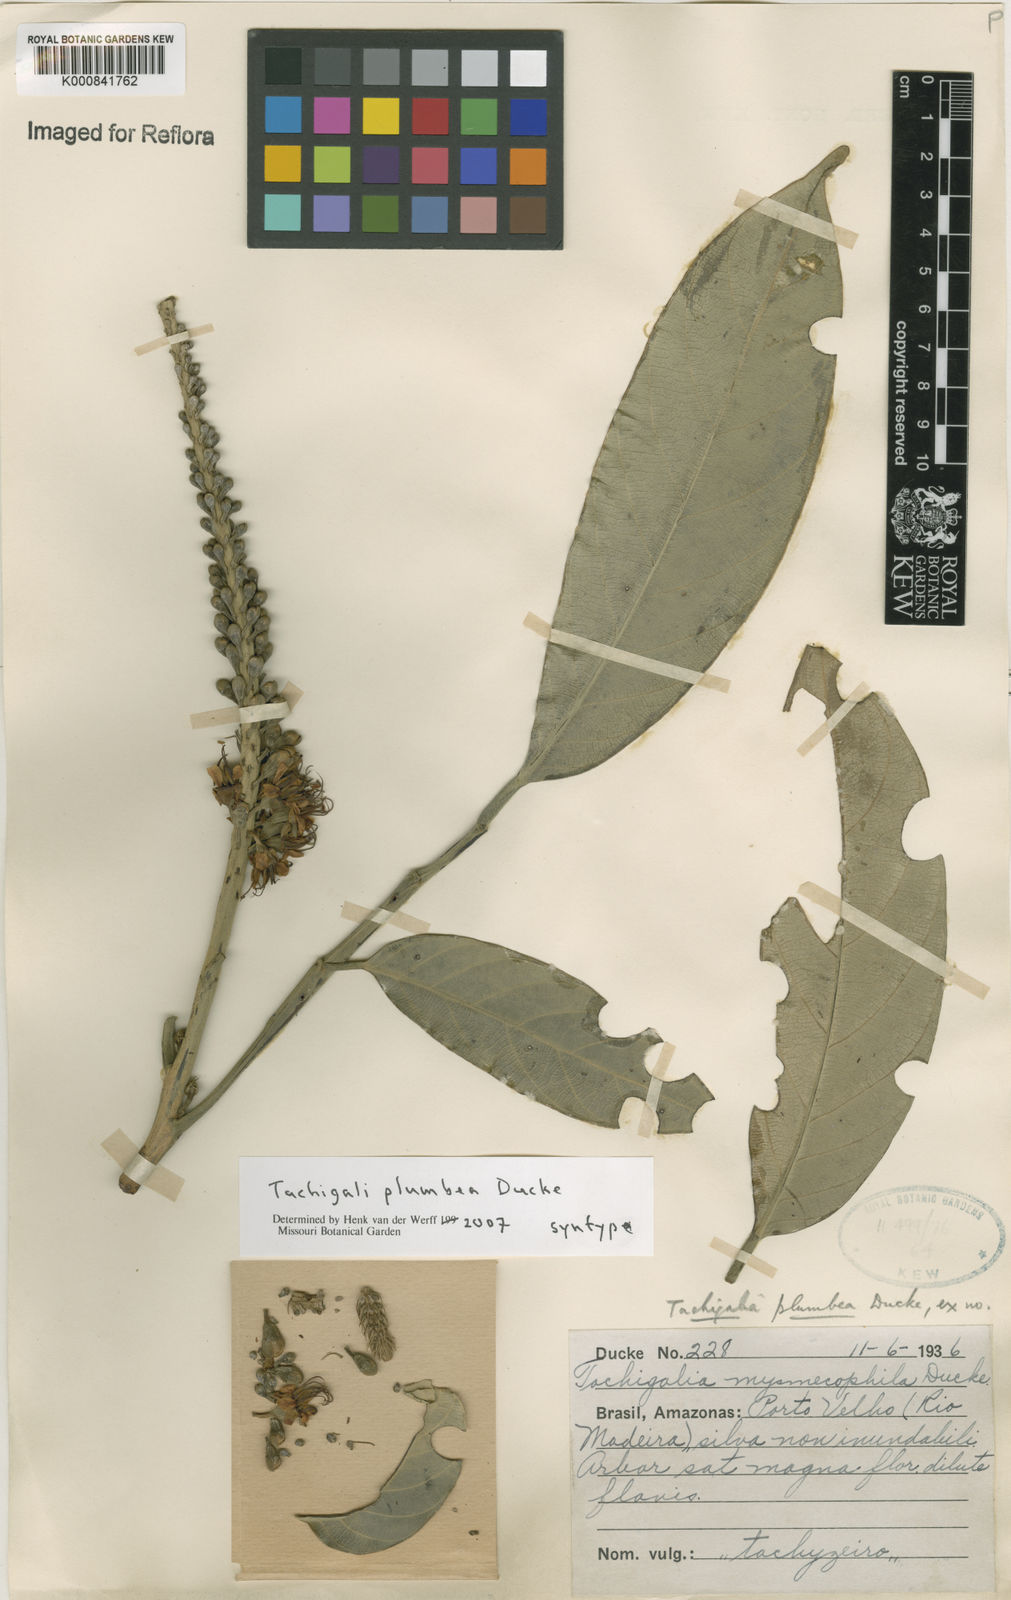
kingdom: Plantae
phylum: Tracheophyta
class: Magnoliopsida
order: Fabales
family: Fabaceae
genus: Tachigali
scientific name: Tachigali plumbea
